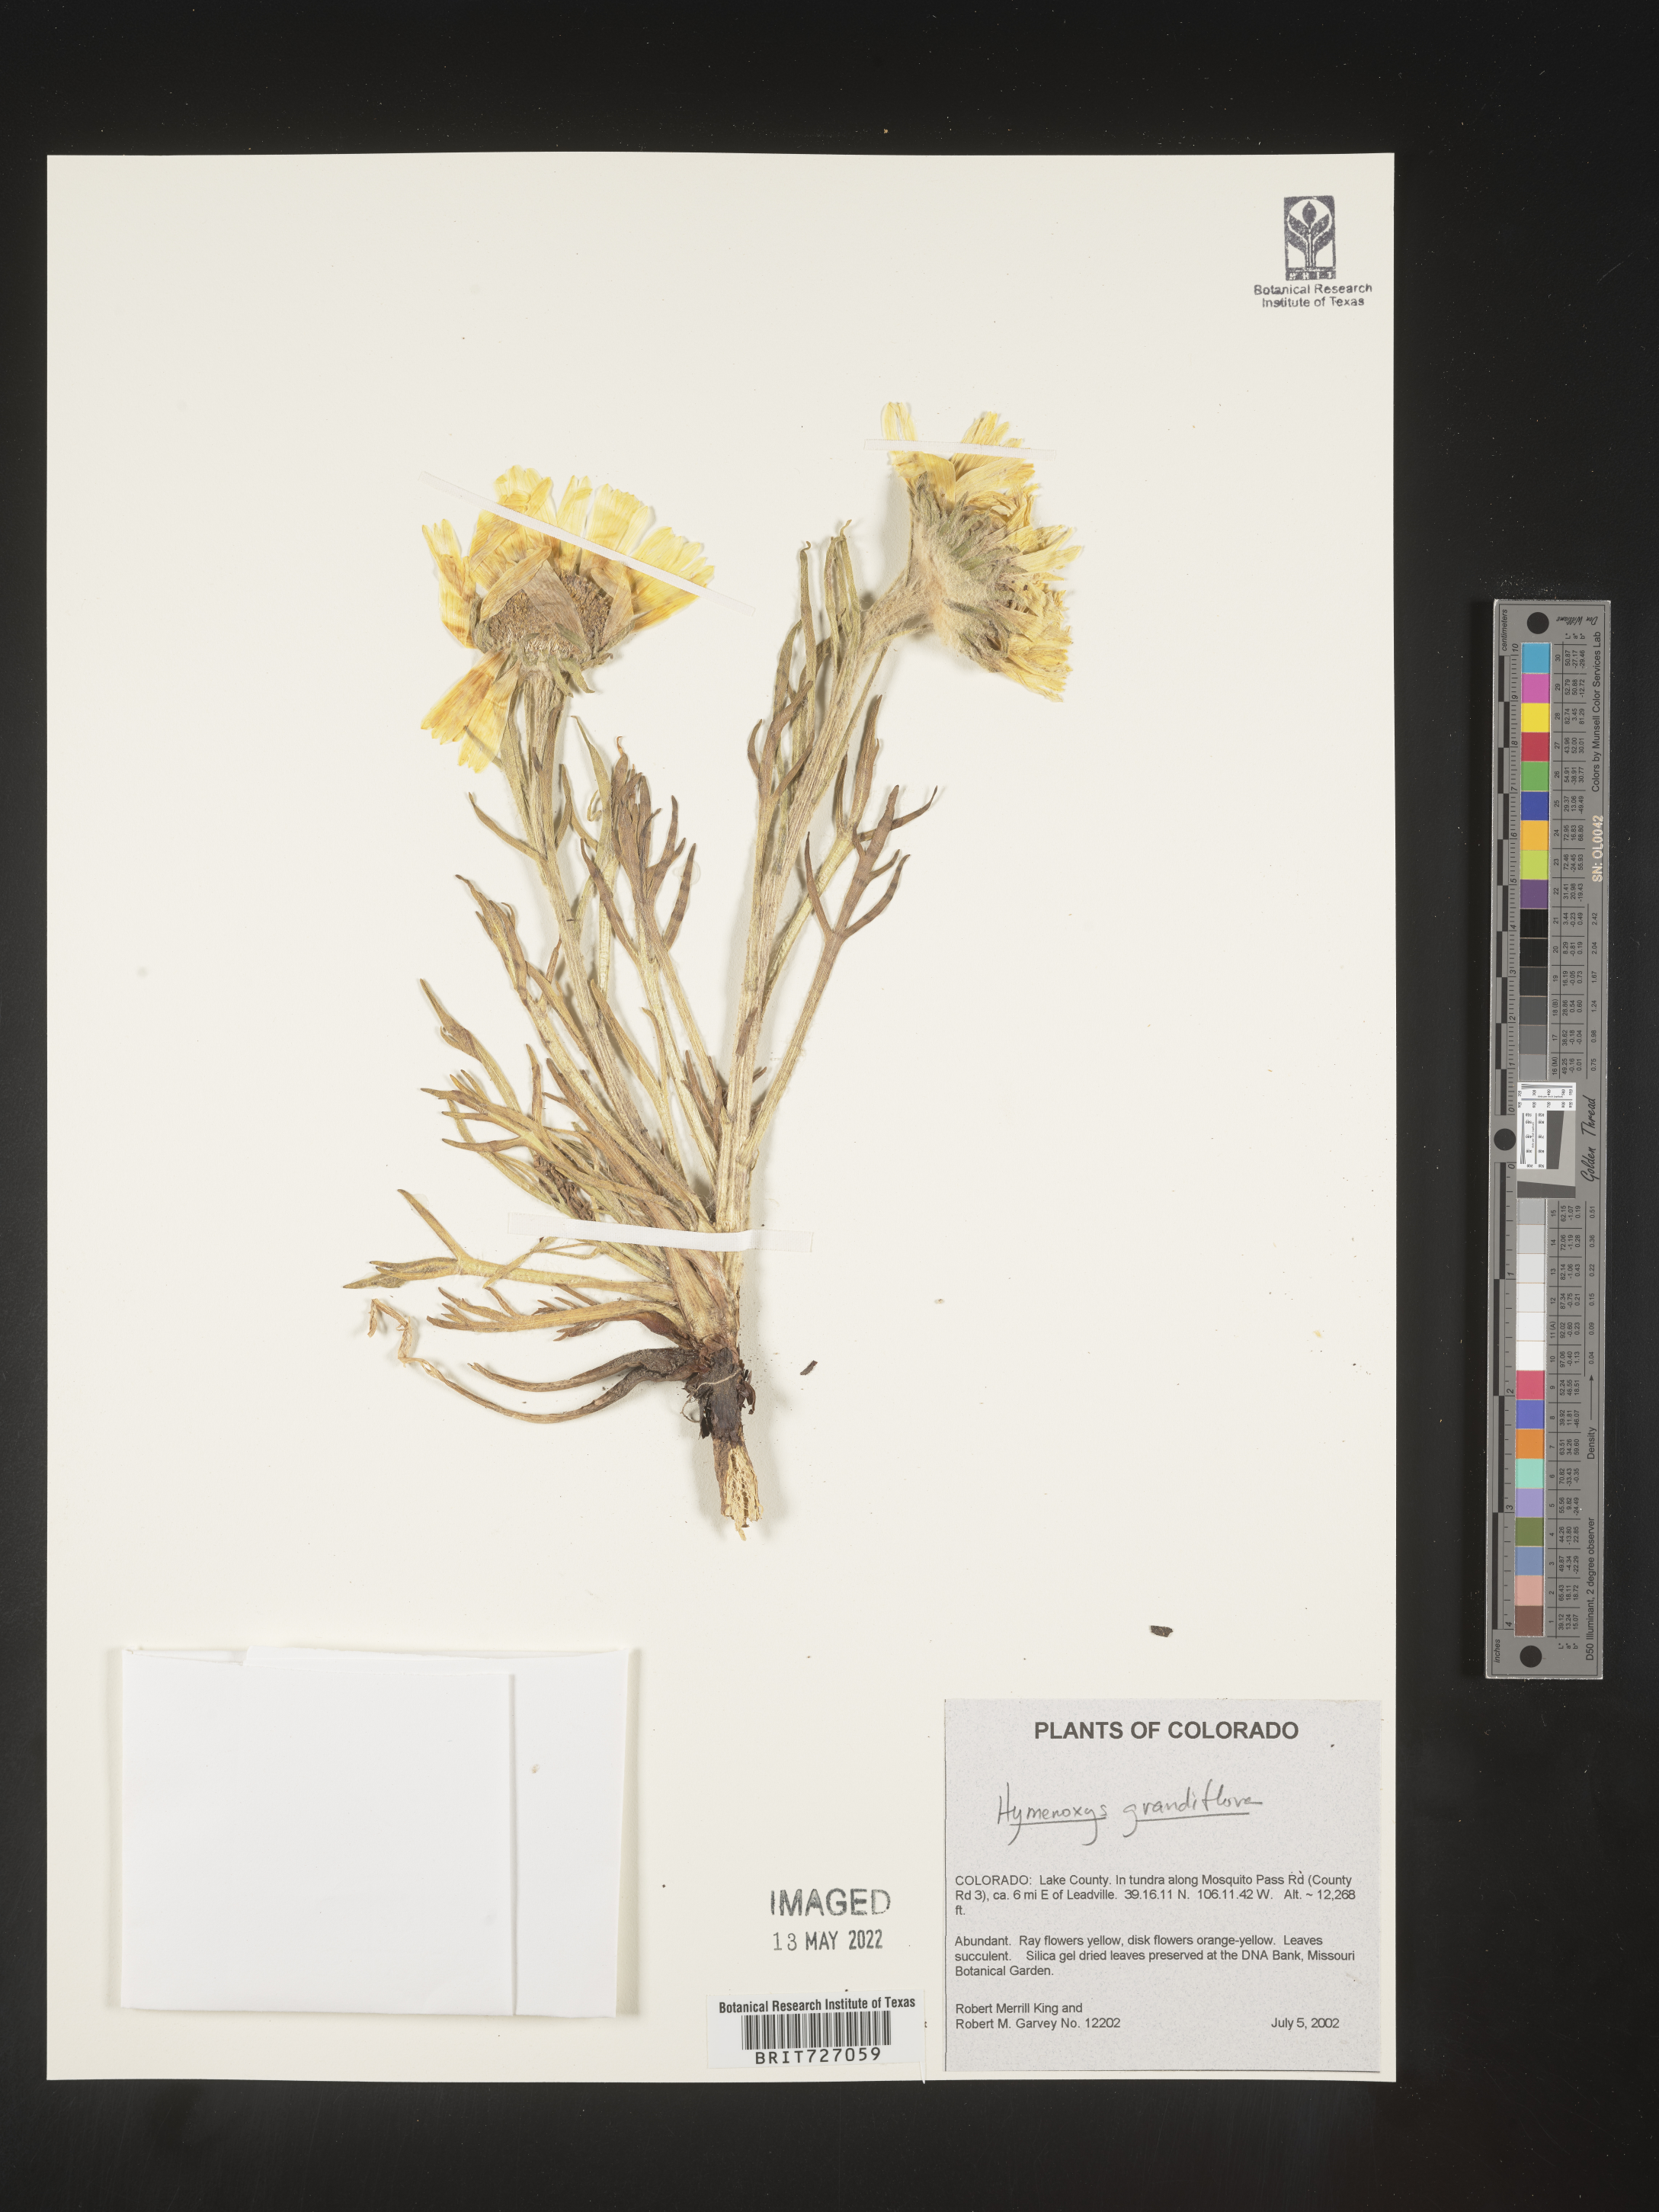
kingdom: Plantae
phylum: Tracheophyta
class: Magnoliopsida
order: Asterales
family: Asteraceae
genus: Hymenoxys
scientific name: Hymenoxys grandiflora
